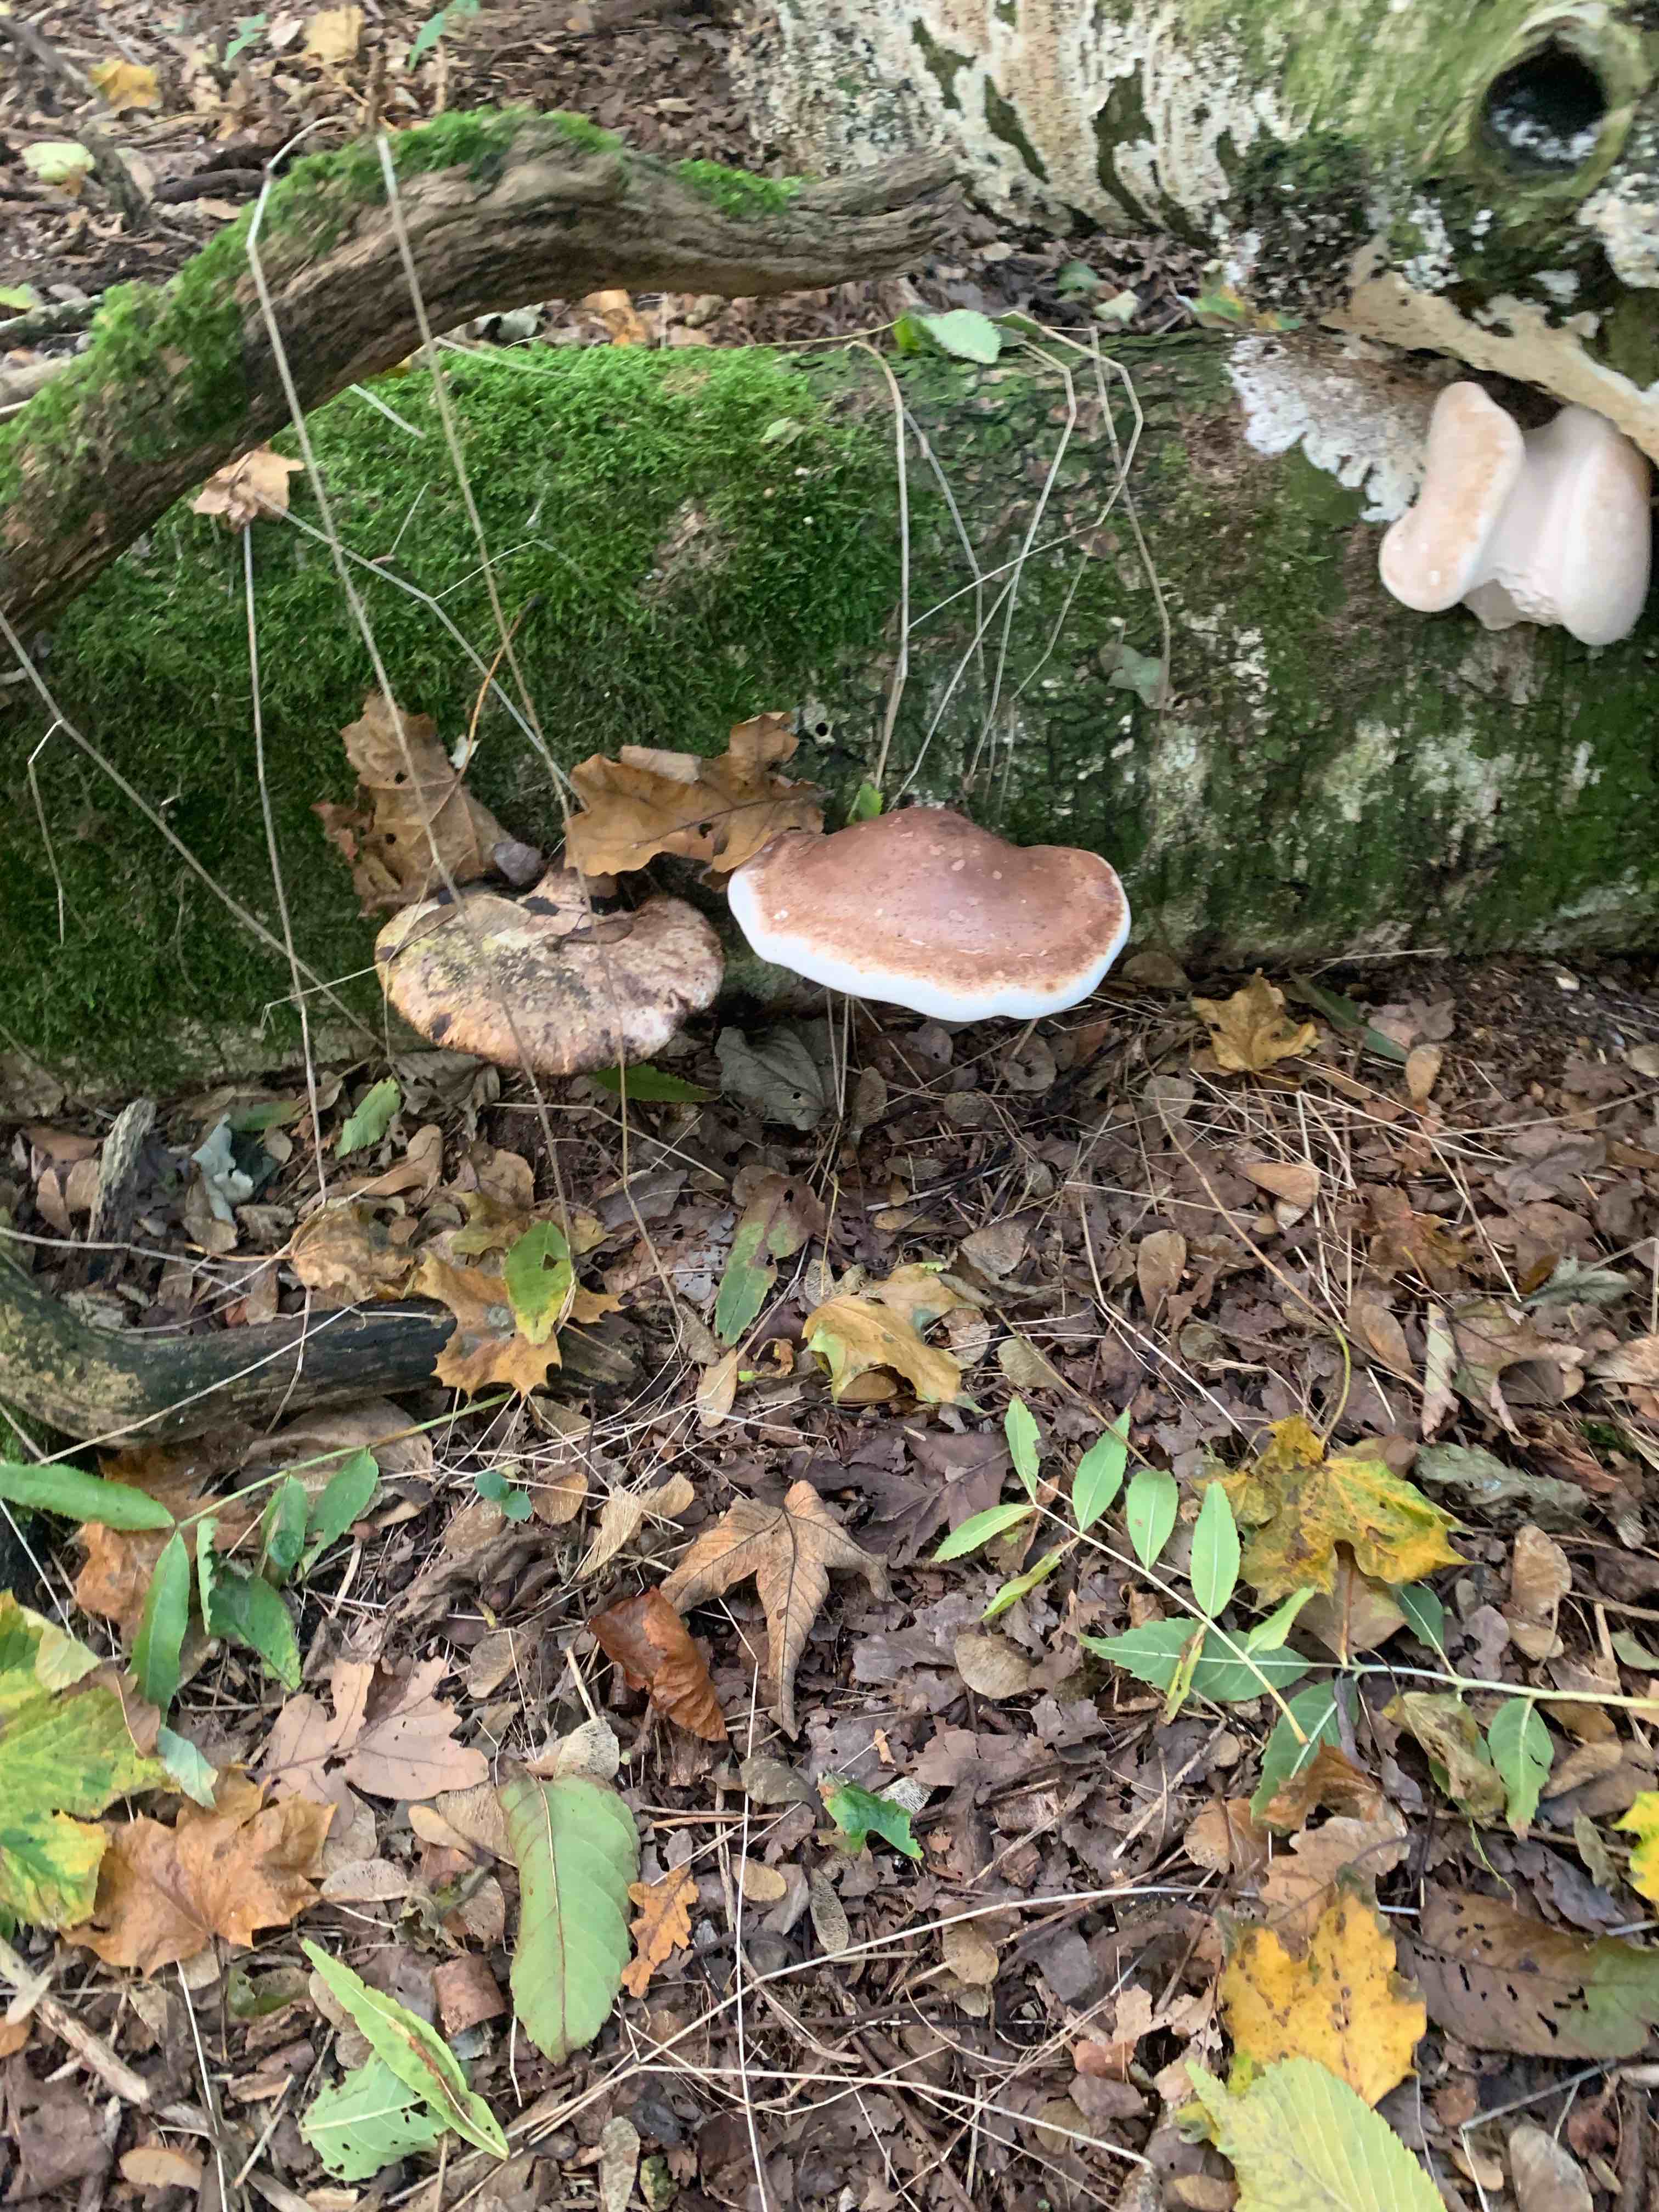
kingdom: Fungi
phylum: Basidiomycota
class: Agaricomycetes
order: Polyporales
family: Fomitopsidaceae
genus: Fomitopsis
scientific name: Fomitopsis betulina
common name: birkeporesvamp
